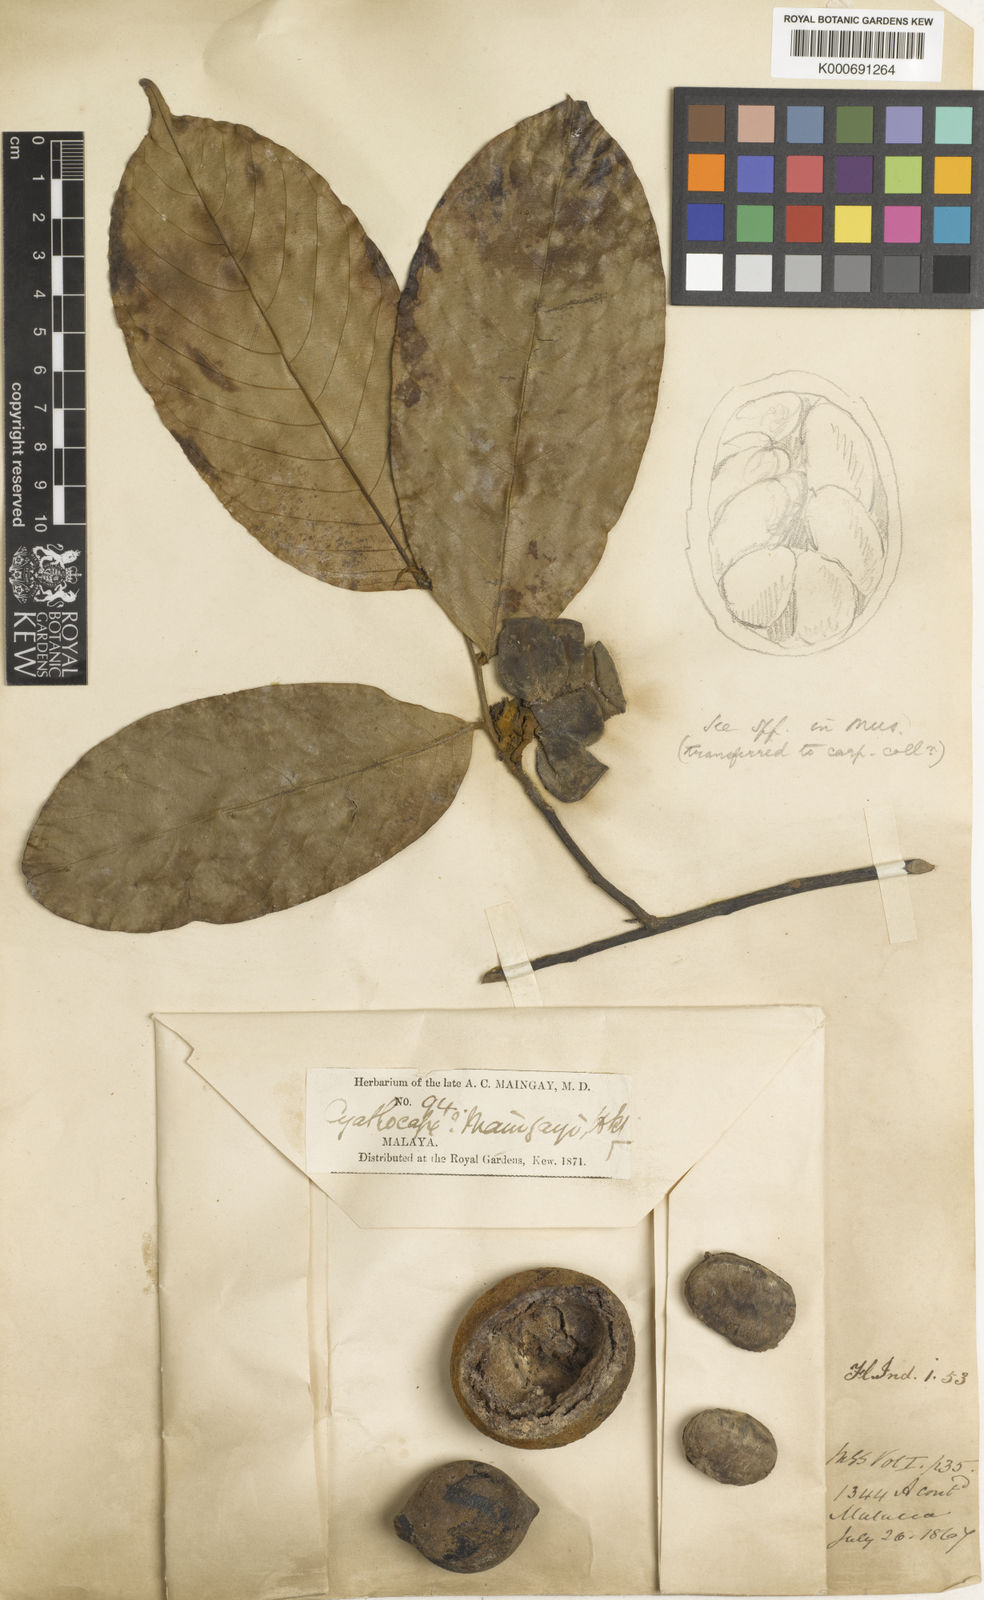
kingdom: Plantae
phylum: Tracheophyta
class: Magnoliopsida
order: Magnoliales
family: Annonaceae
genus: Monocarpia
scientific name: Monocarpia marginalis
